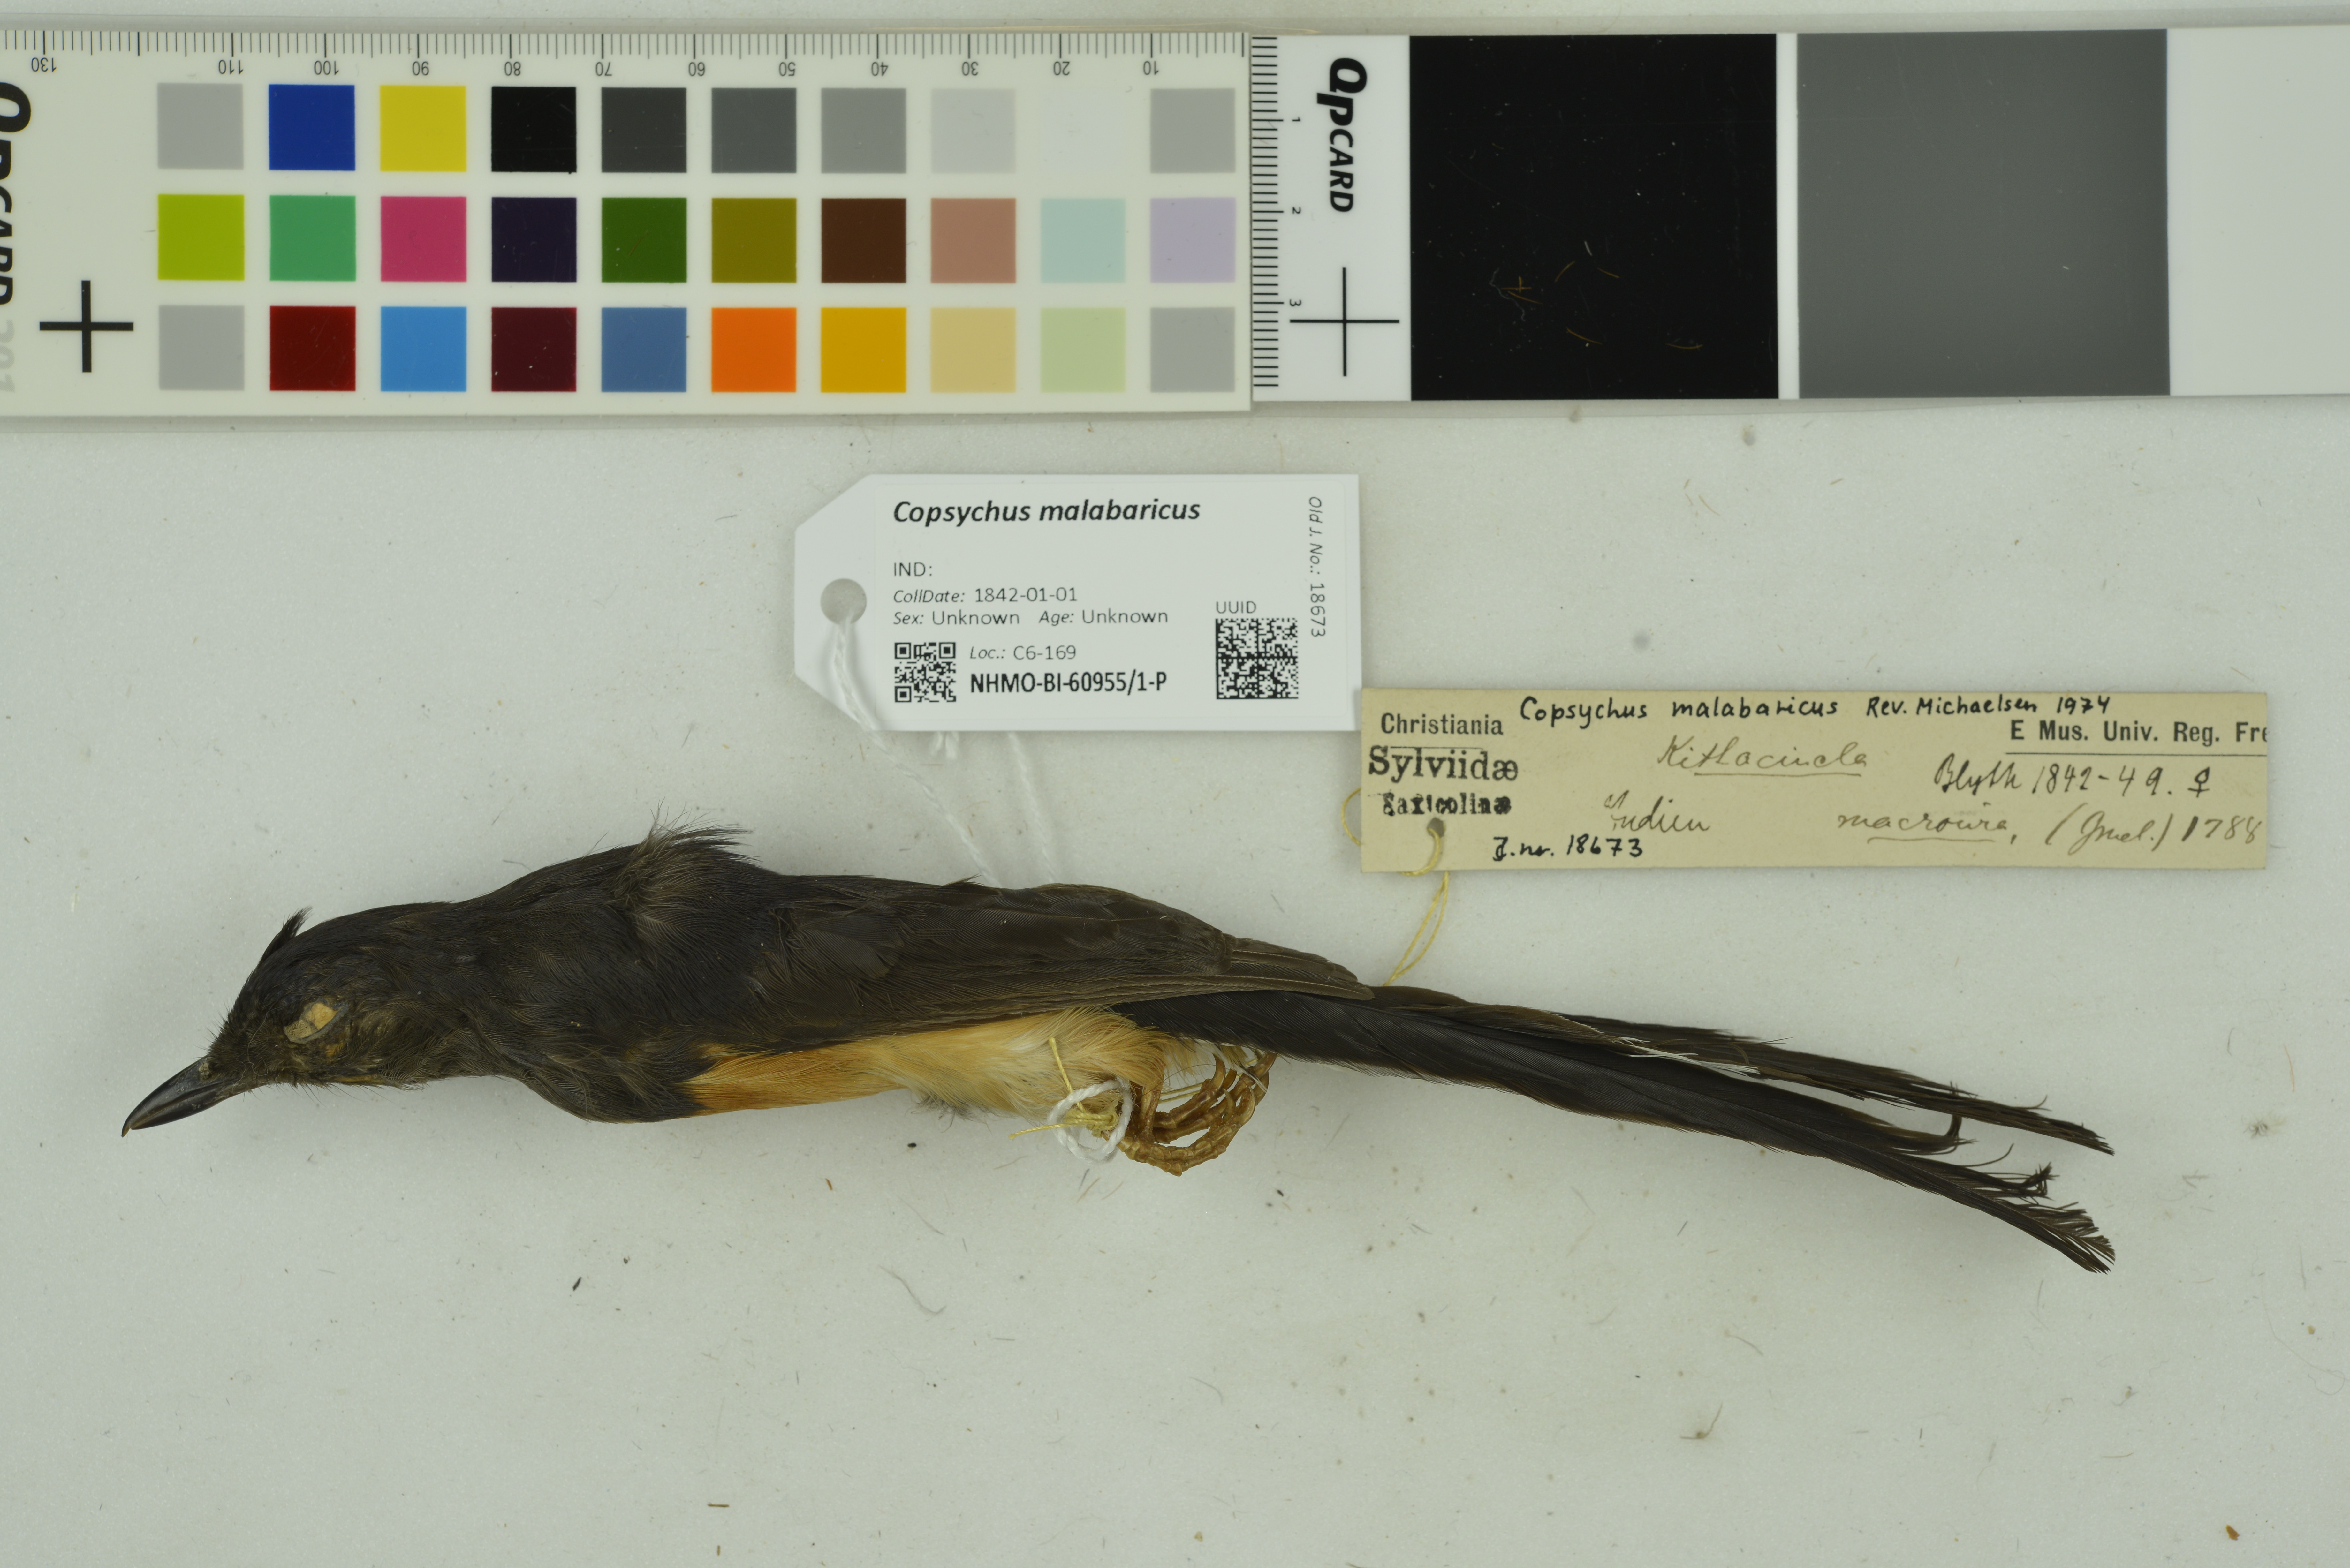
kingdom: Animalia
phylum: Chordata
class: Aves
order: Passeriformes
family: Muscicapidae
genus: Copsychus
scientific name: Copsychus malabaricus
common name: White-rumped shama
